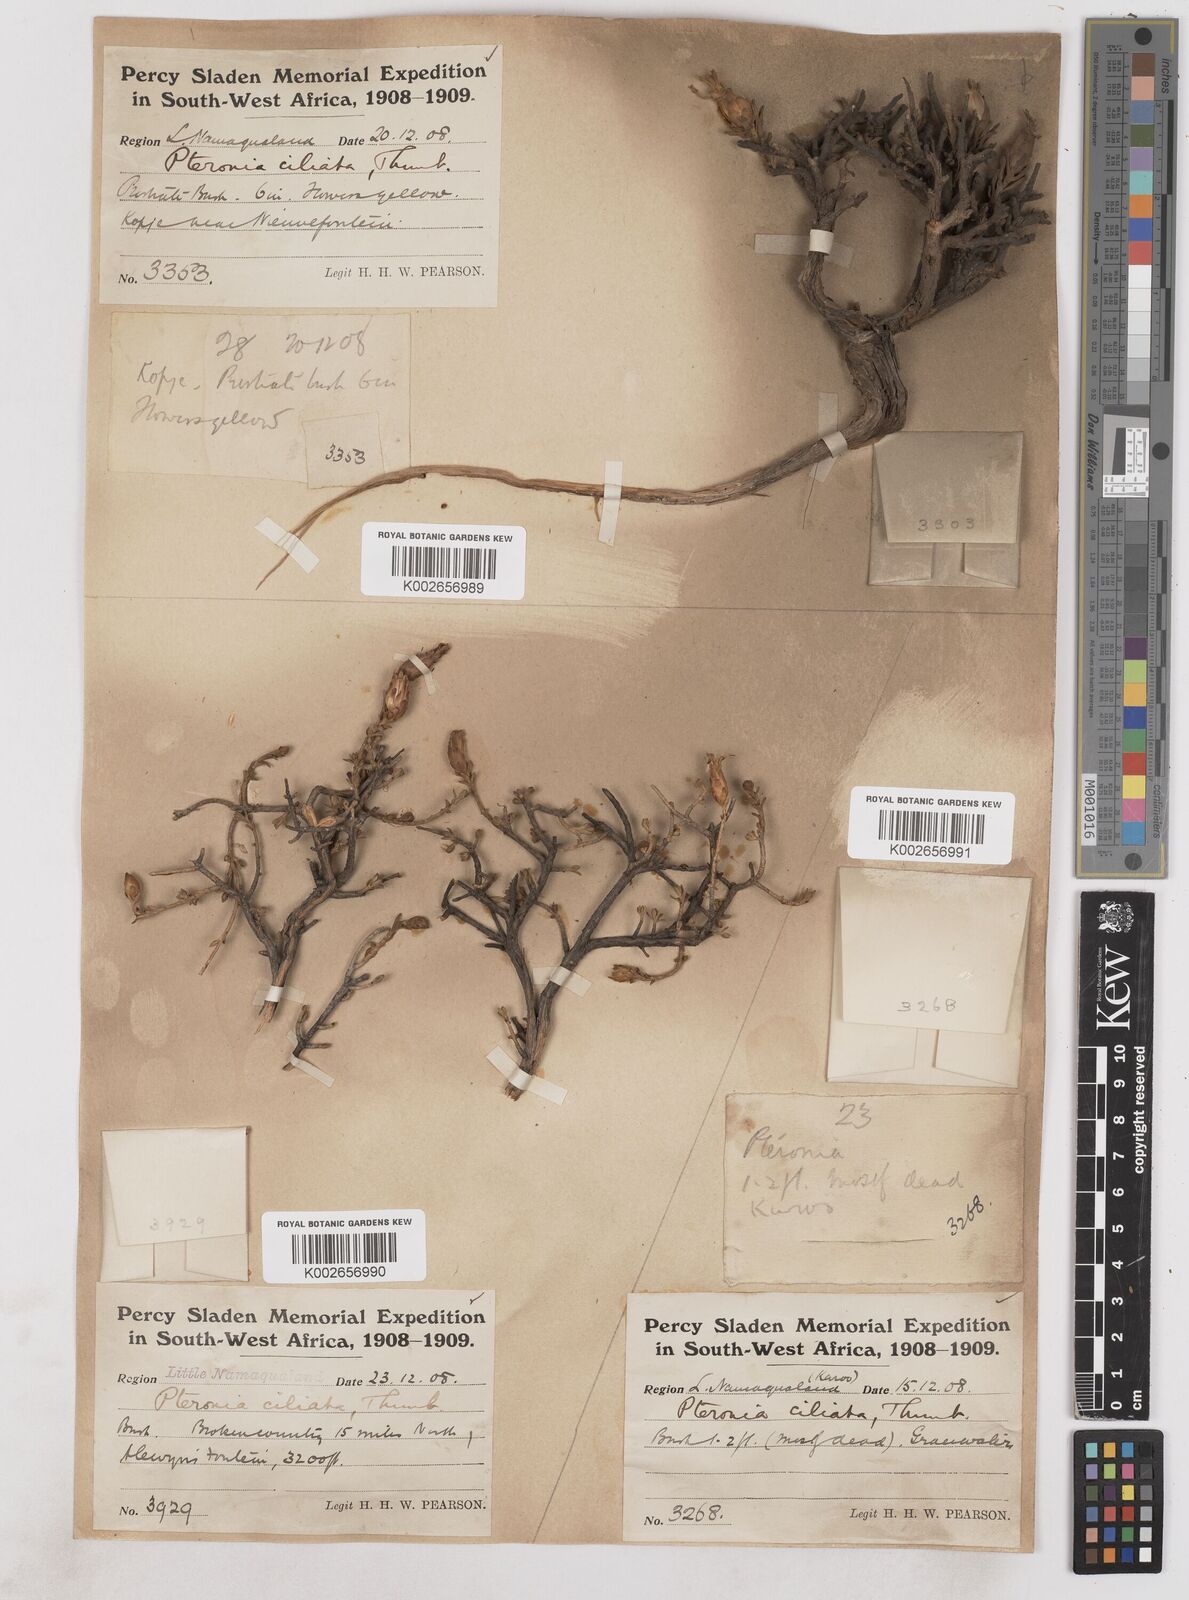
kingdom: Plantae
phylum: Tracheophyta
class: Magnoliopsida
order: Asterales
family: Asteraceae
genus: Pteronia
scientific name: Pteronia ciliata
